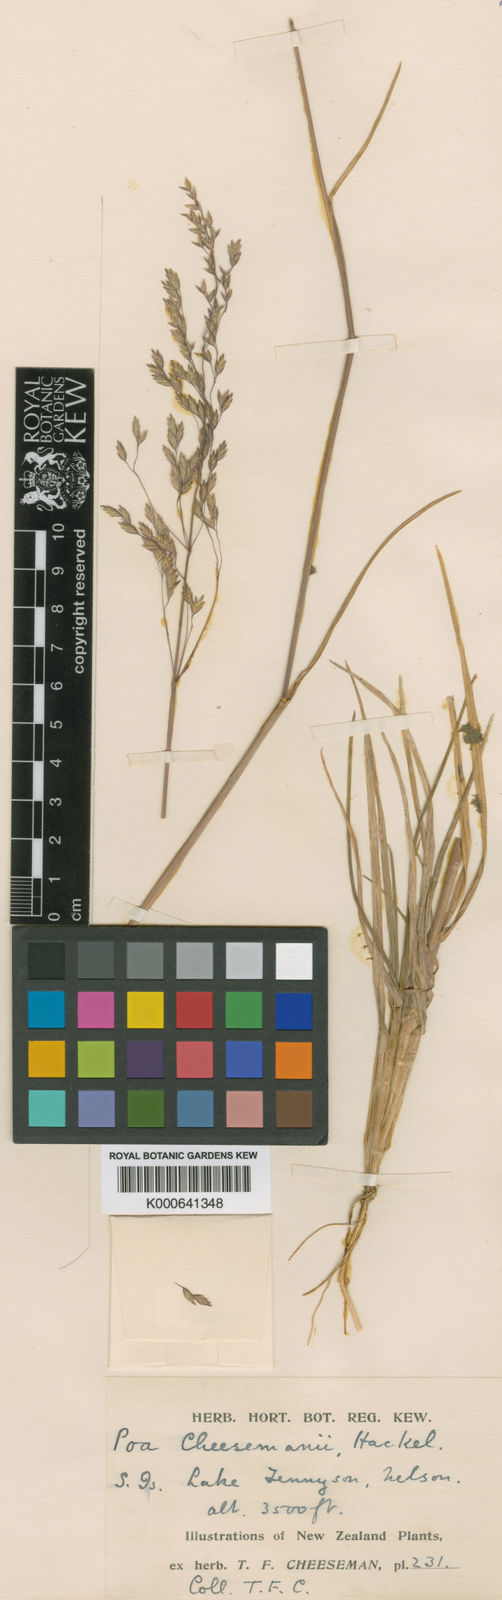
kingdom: Plantae
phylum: Tracheophyta
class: Liliopsida
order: Poales
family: Poaceae
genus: Poa
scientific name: Poa dipsacea
